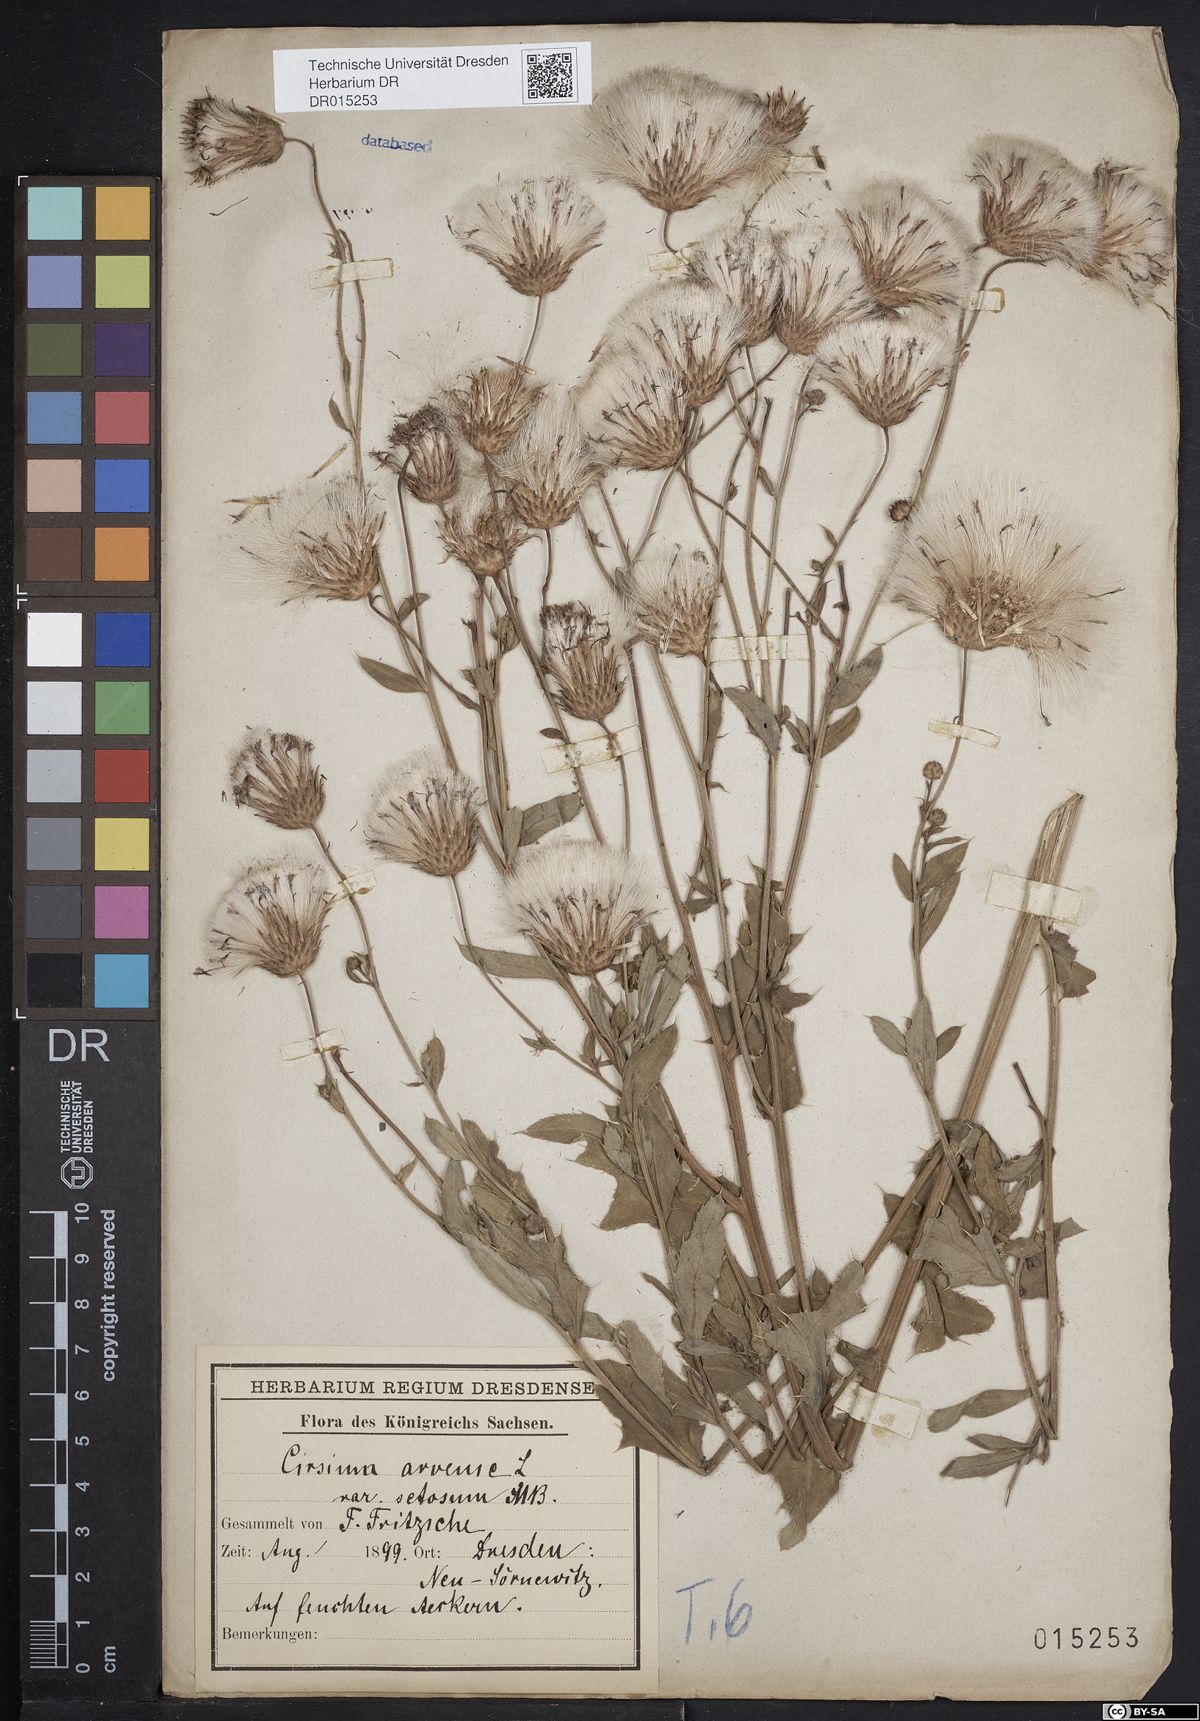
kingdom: Plantae
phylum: Tracheophyta
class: Magnoliopsida
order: Asterales
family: Asteraceae
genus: Cirsium
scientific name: Cirsium arvense
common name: Creeping thistle
